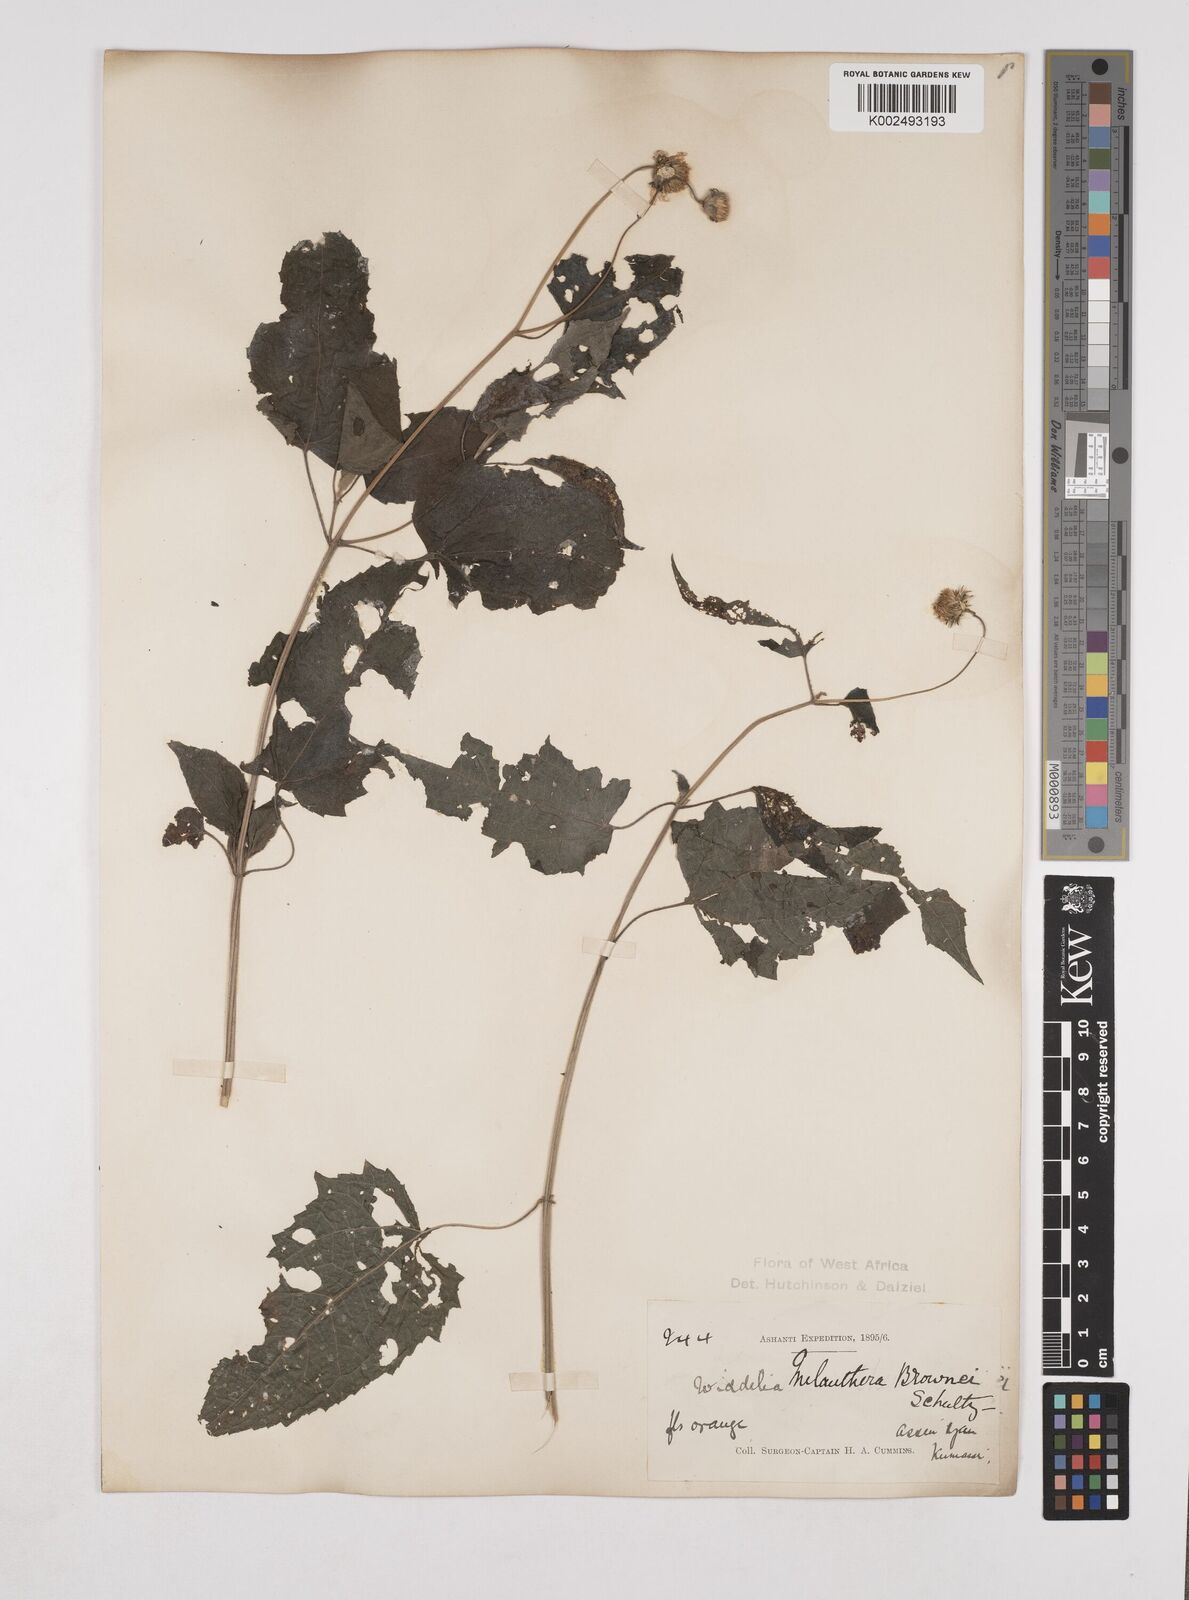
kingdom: Plantae
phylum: Tracheophyta
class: Magnoliopsida
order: Asterales
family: Asteraceae
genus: Lipotriche
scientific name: Lipotriche scandens
